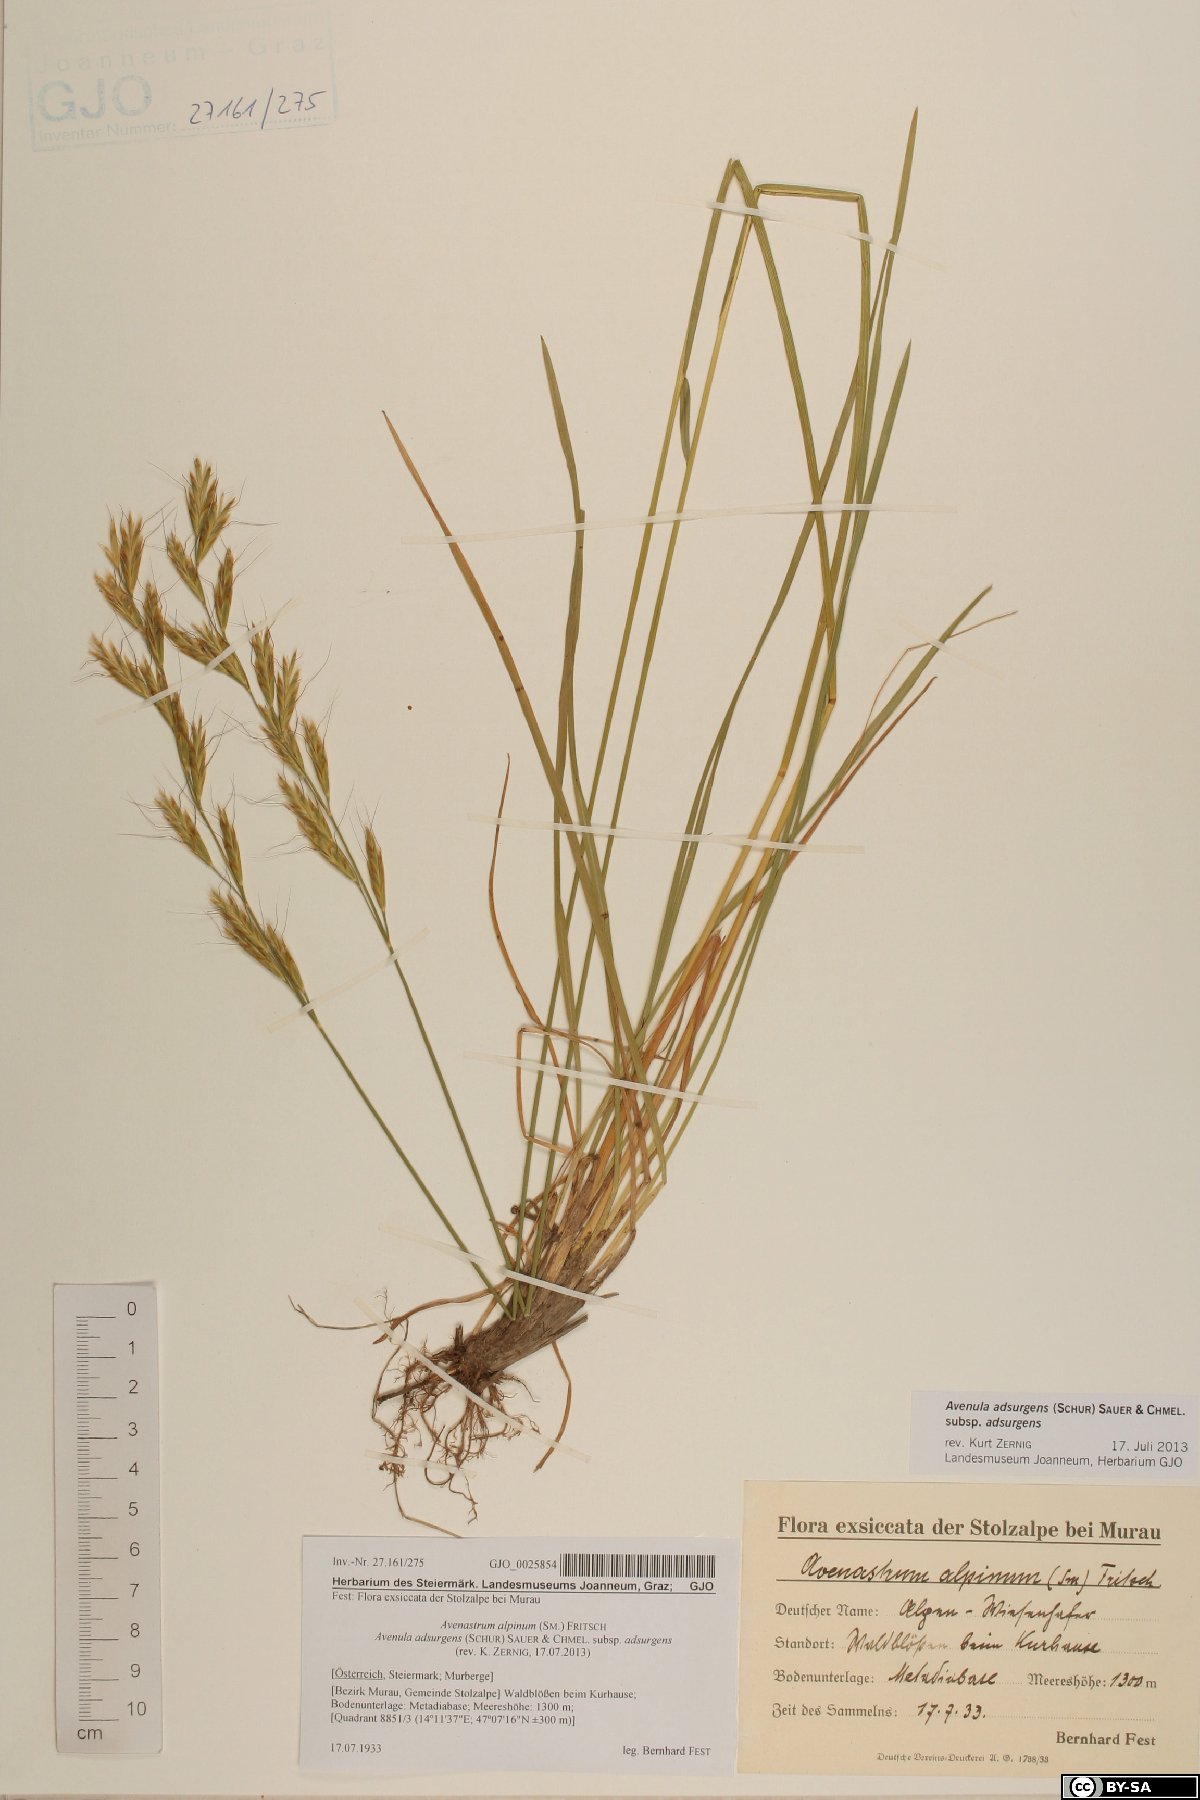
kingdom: Plantae
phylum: Tracheophyta
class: Liliopsida
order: Poales
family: Cyperaceae
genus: Carex
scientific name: Carex atrata
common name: Black alpine sedge
